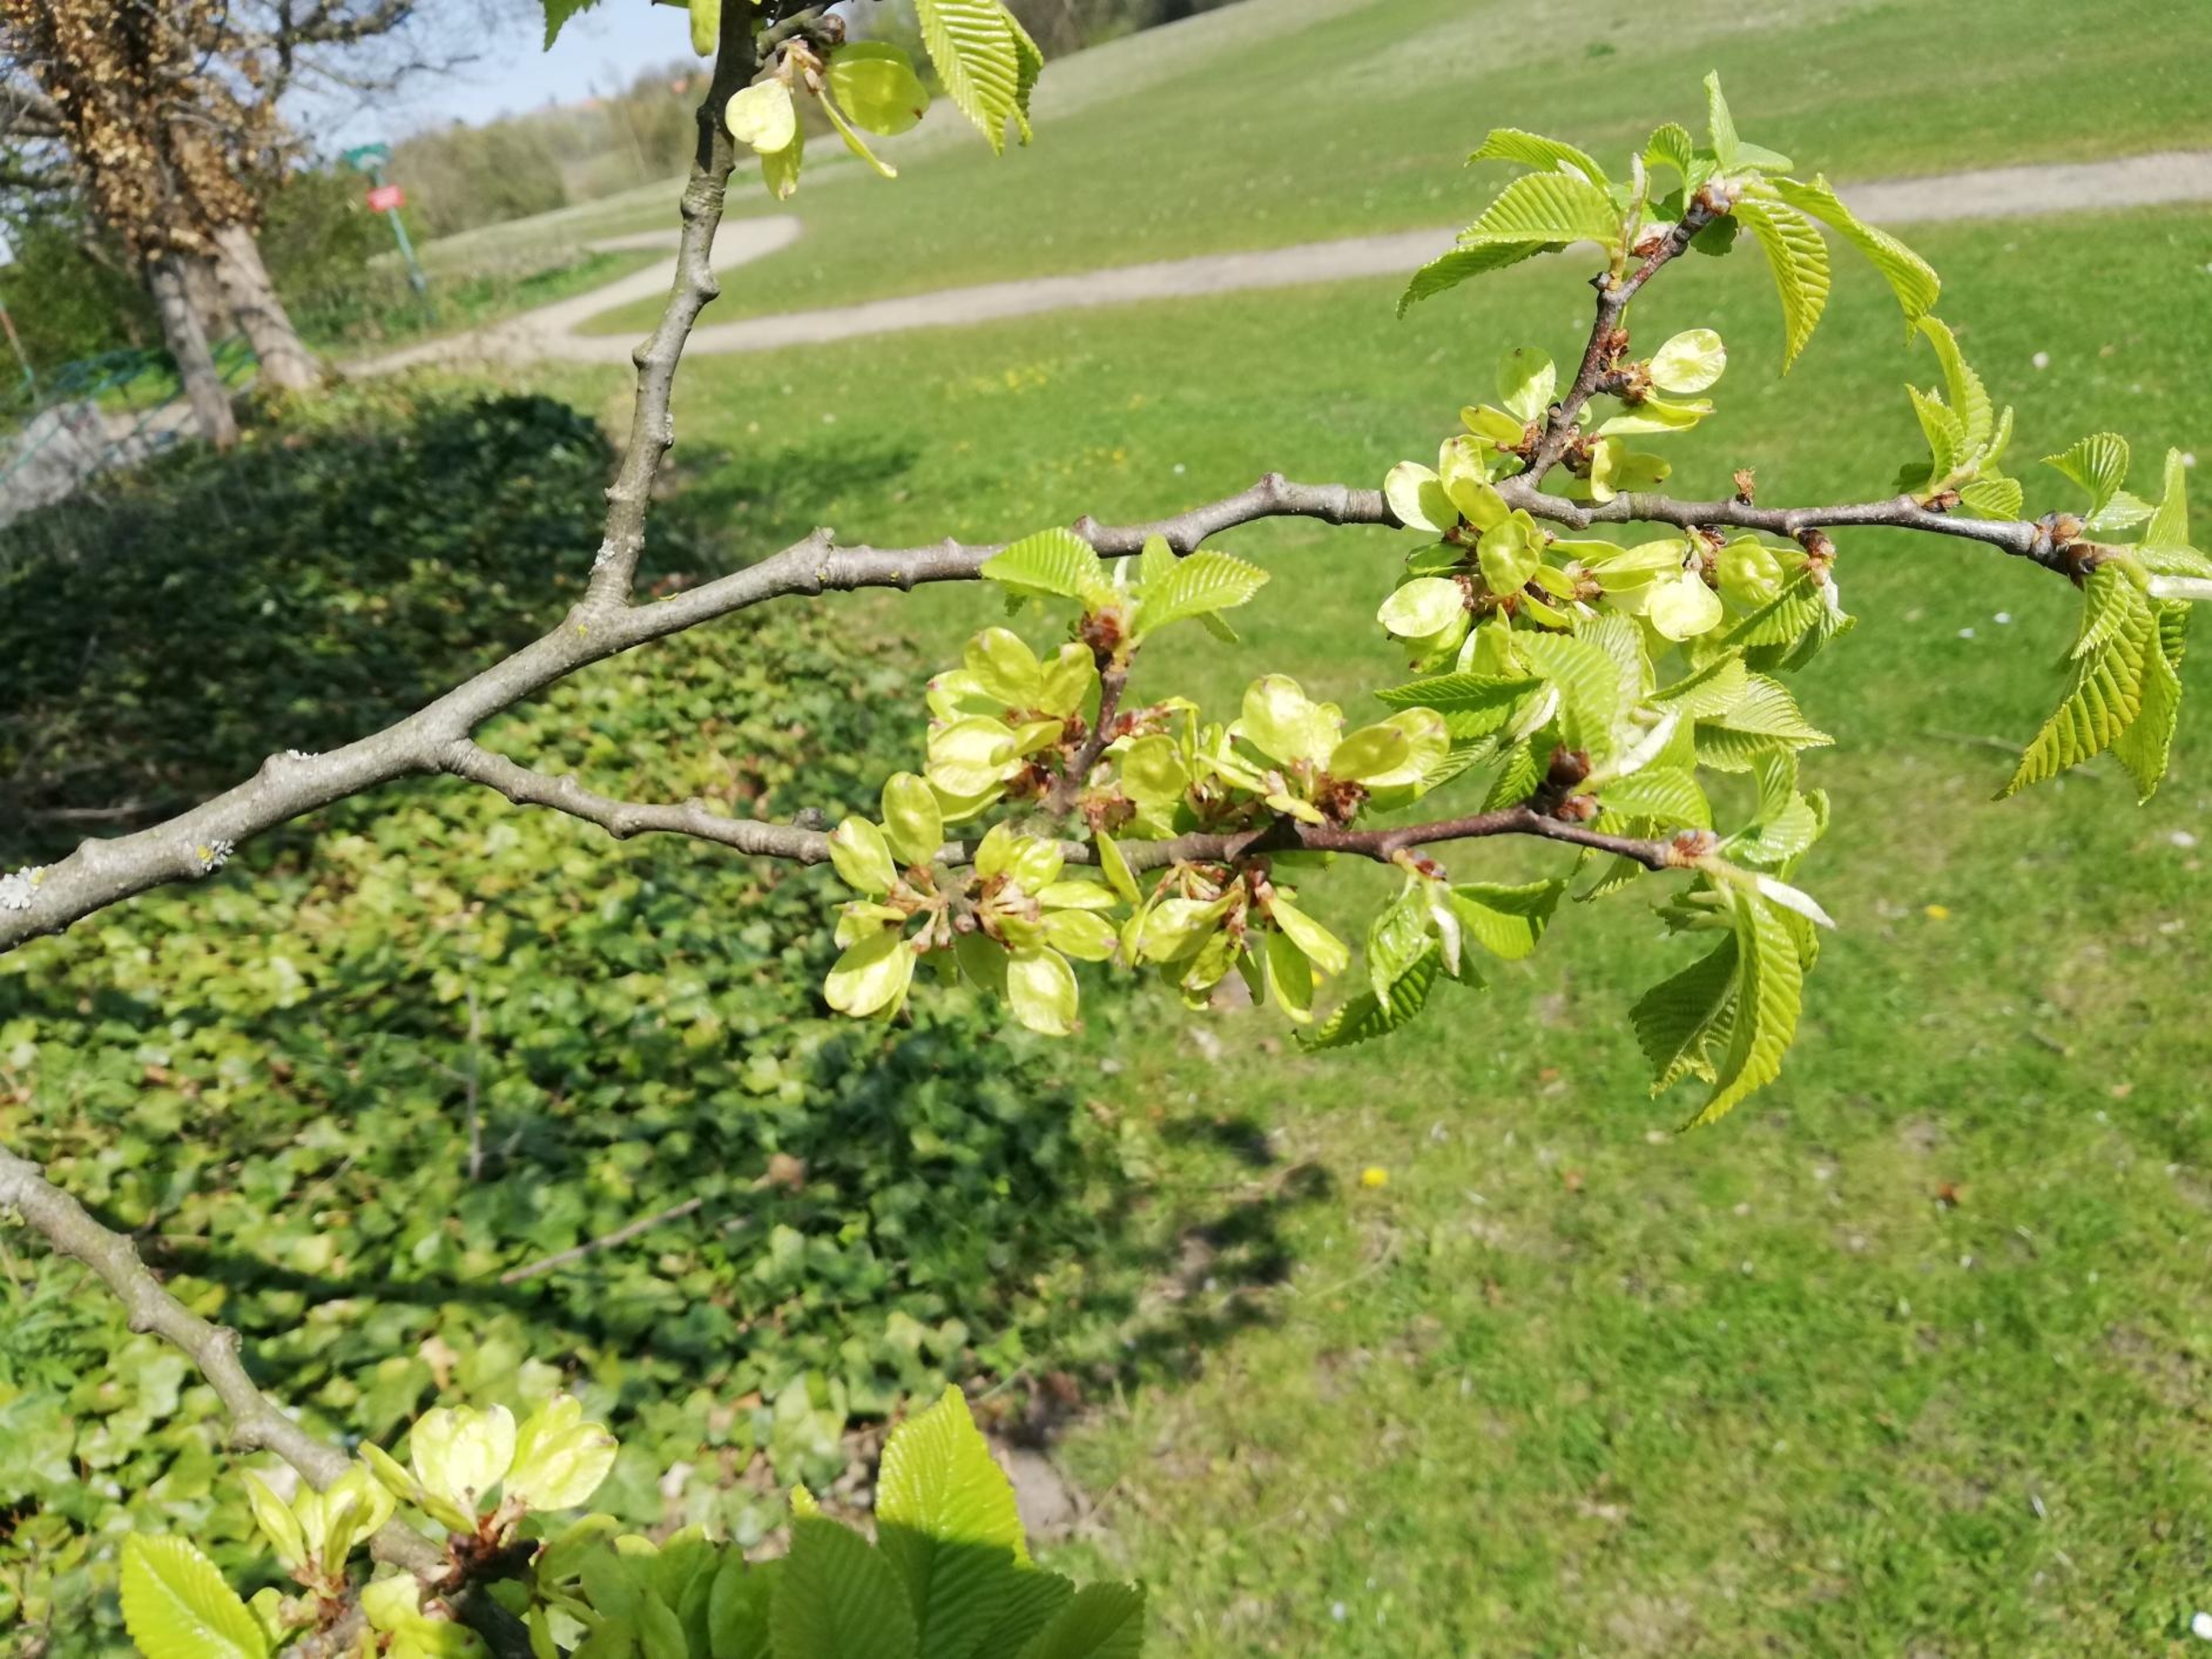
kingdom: Plantae
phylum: Tracheophyta
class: Magnoliopsida
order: Rosales
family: Ulmaceae
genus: Ulmus
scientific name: Ulmus glabra
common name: Skov-elm/storbladet elm
